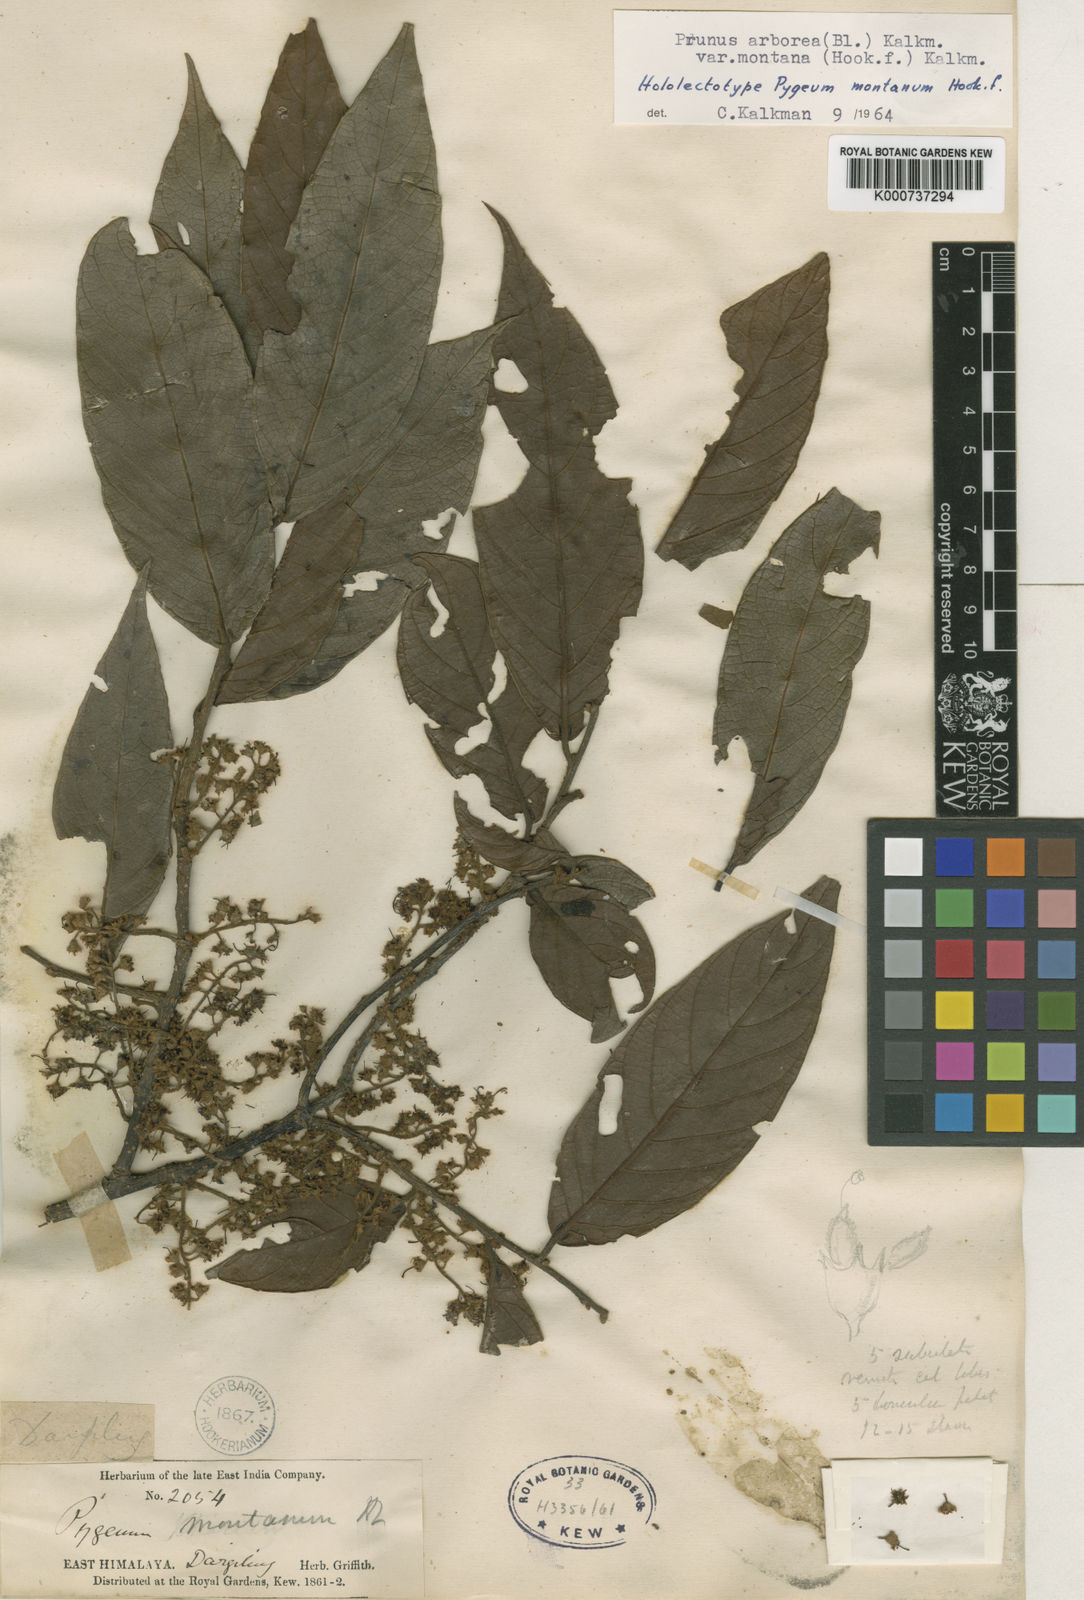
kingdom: Plantae
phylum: Tracheophyta
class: Magnoliopsida
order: Rosales
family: Rosaceae
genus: Prunus
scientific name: Prunus arborea
